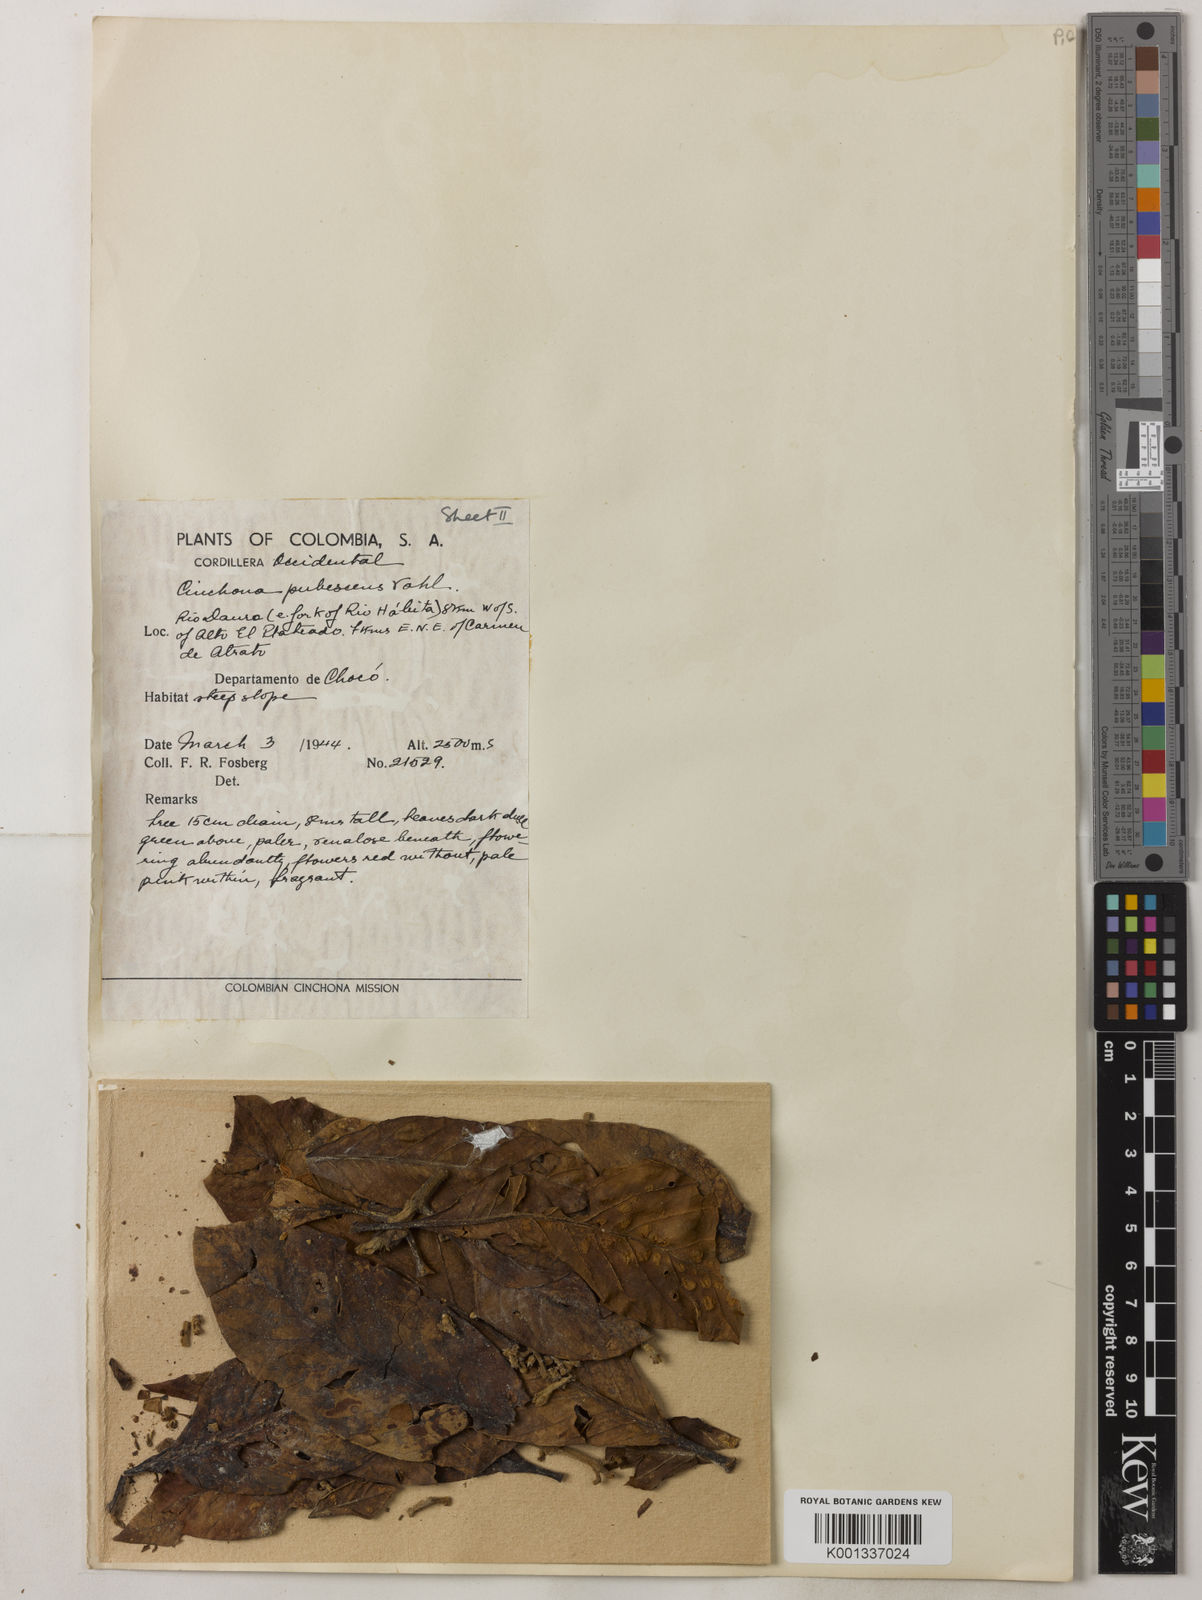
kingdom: Plantae
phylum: Tracheophyta
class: Magnoliopsida
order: Gentianales
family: Rubiaceae
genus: Cinchona
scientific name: Cinchona pubescens
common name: Quinine
